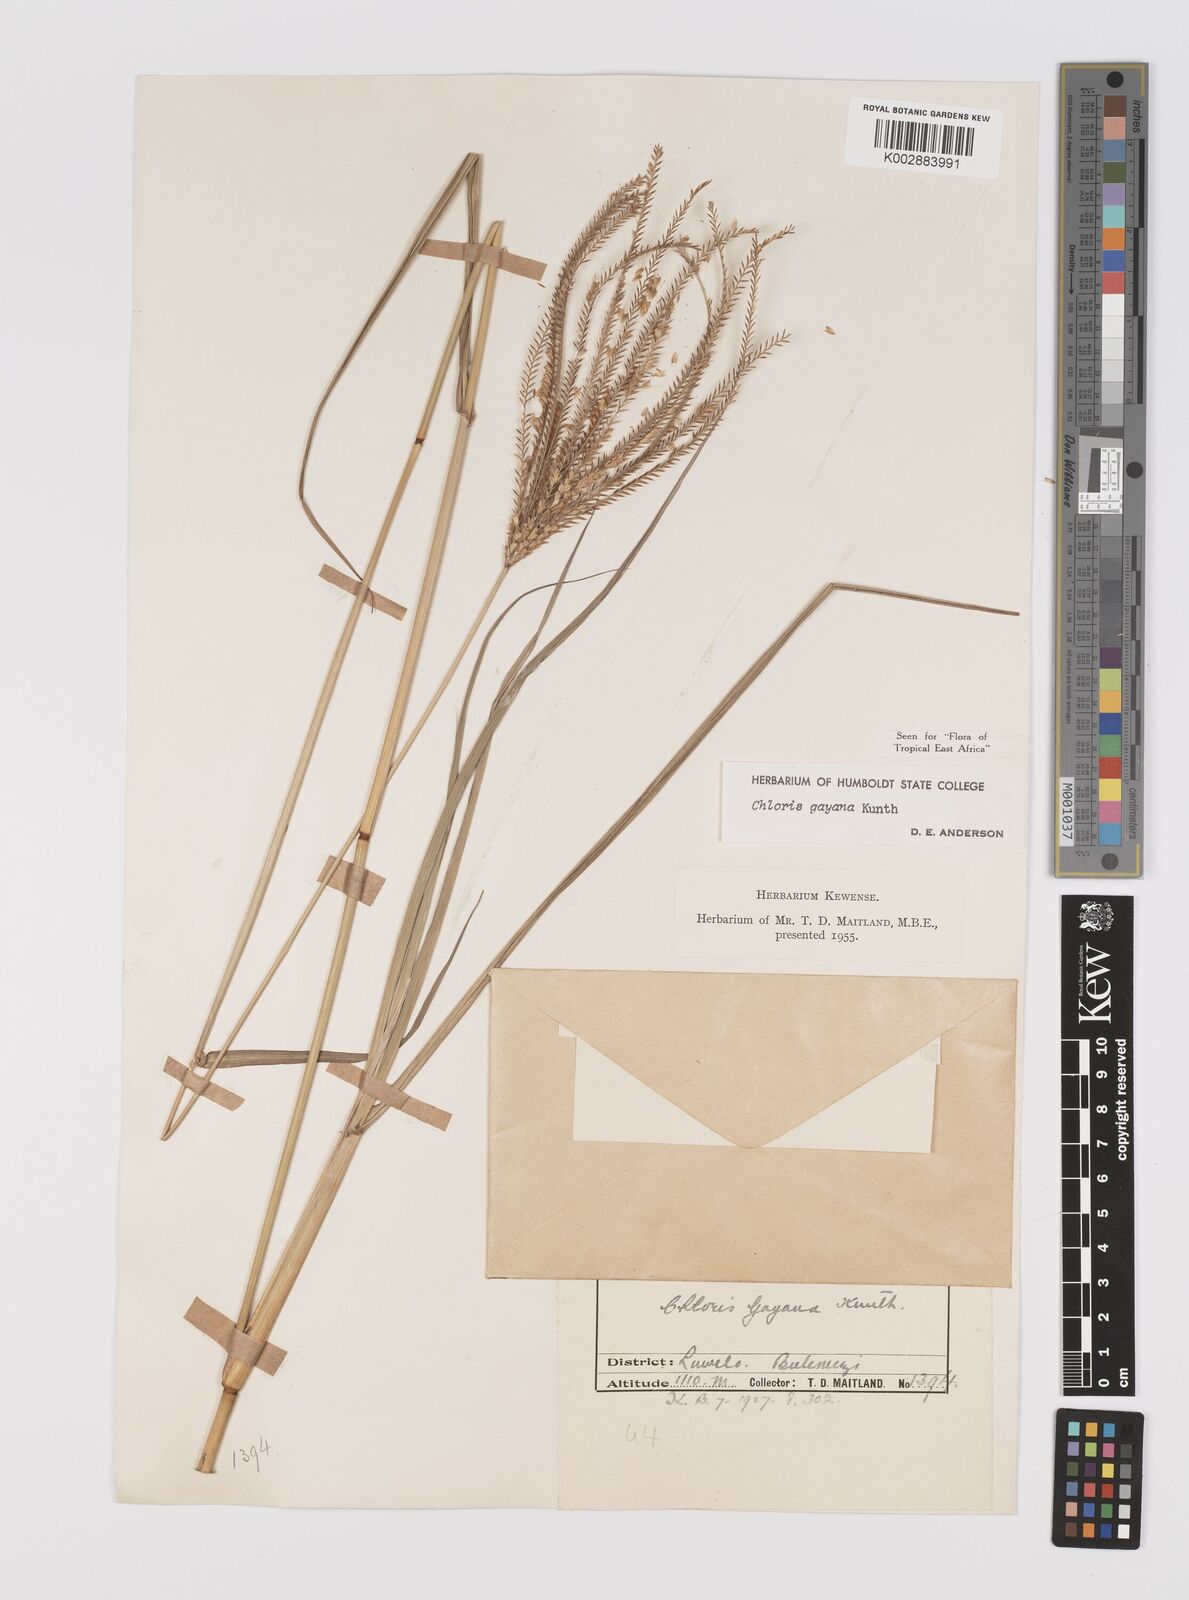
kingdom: Plantae
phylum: Tracheophyta
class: Liliopsida
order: Poales
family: Poaceae
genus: Chloris
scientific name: Chloris gayana
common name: Rhodes grass
